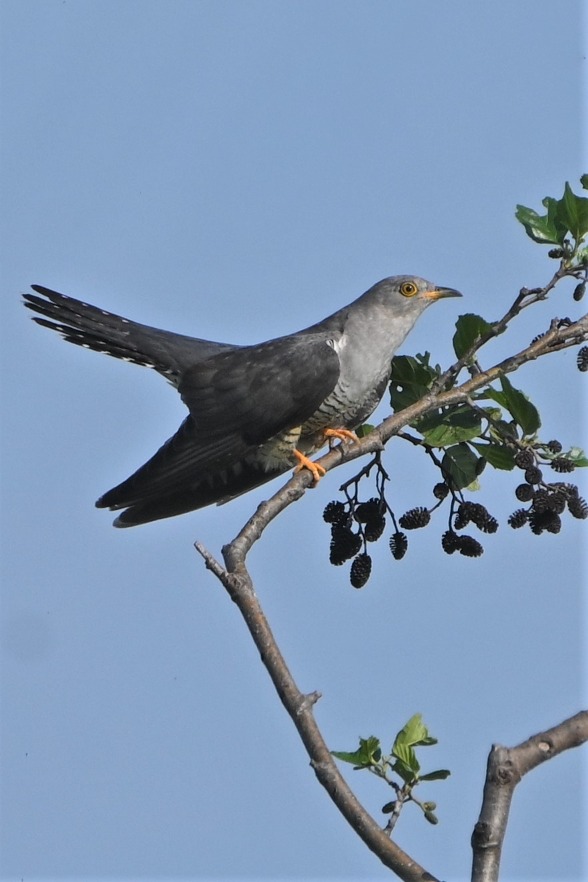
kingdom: Animalia
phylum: Chordata
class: Aves
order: Cuculiformes
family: Cuculidae
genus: Cuculus
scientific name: Cuculus canorus
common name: Gøg
